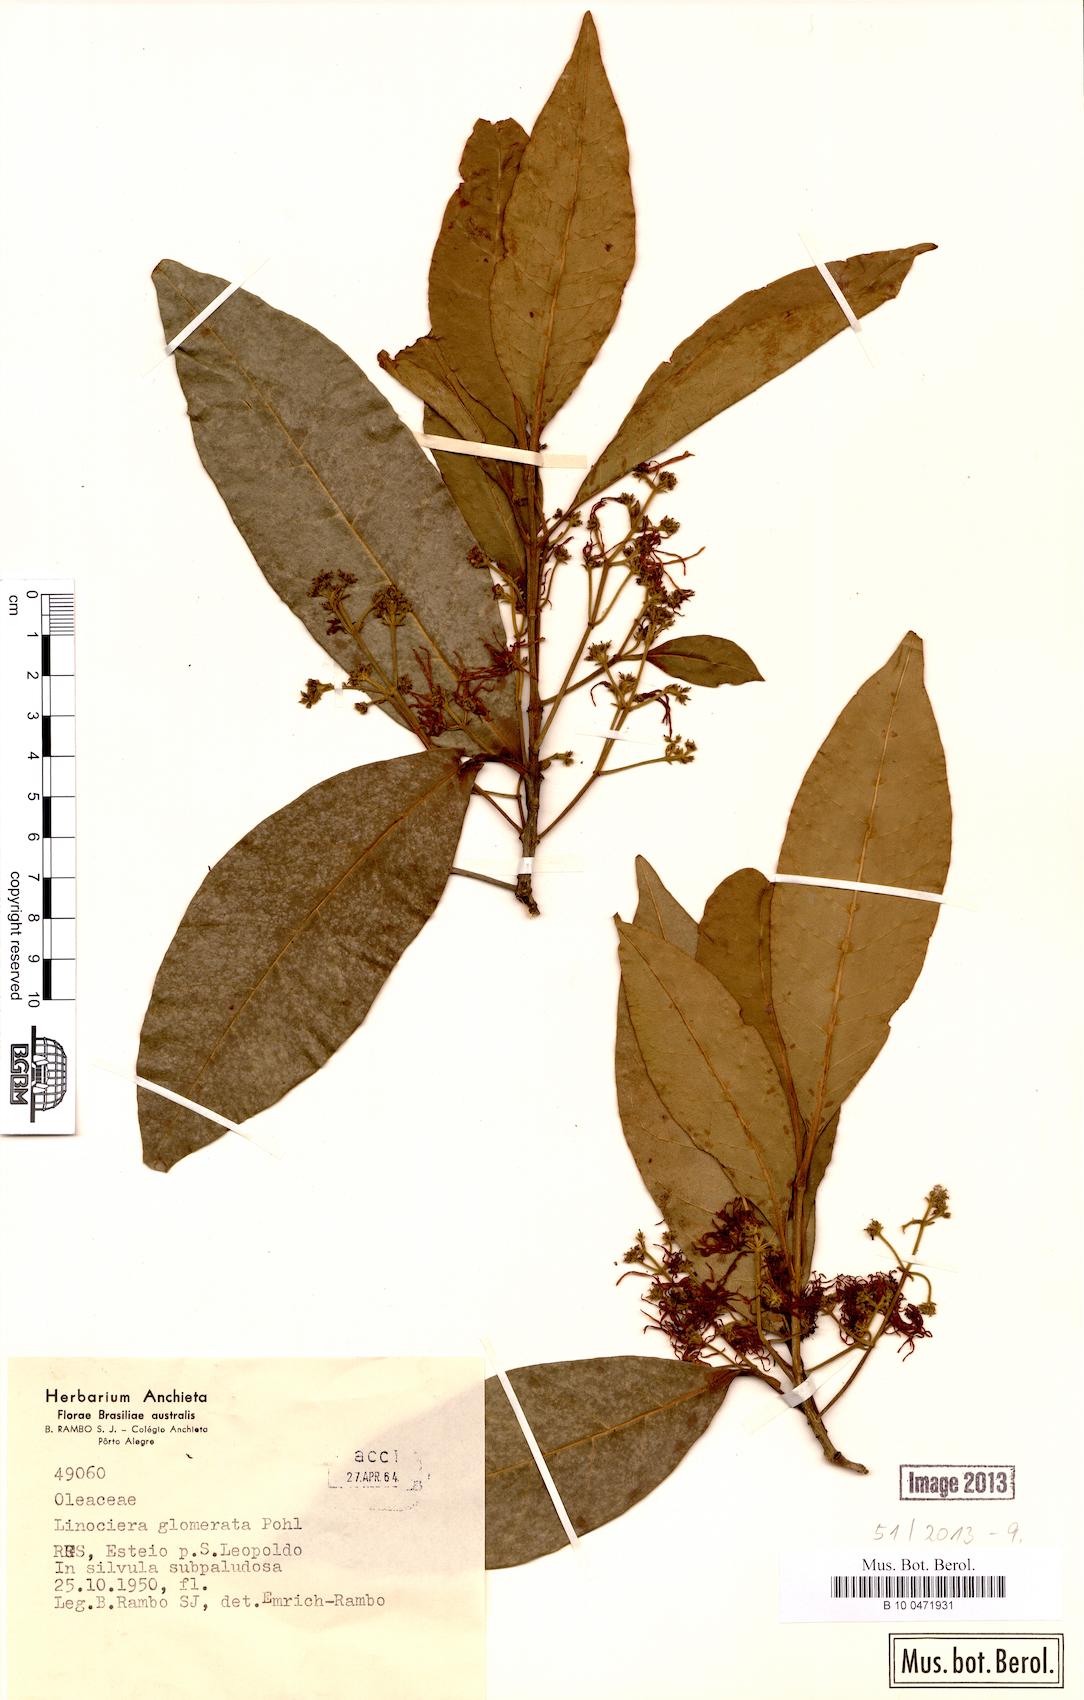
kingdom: Plantae
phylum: Tracheophyta
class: Magnoliopsida
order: Lamiales
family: Oleaceae
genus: Chionanthus
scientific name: Chionanthus trichotomus
